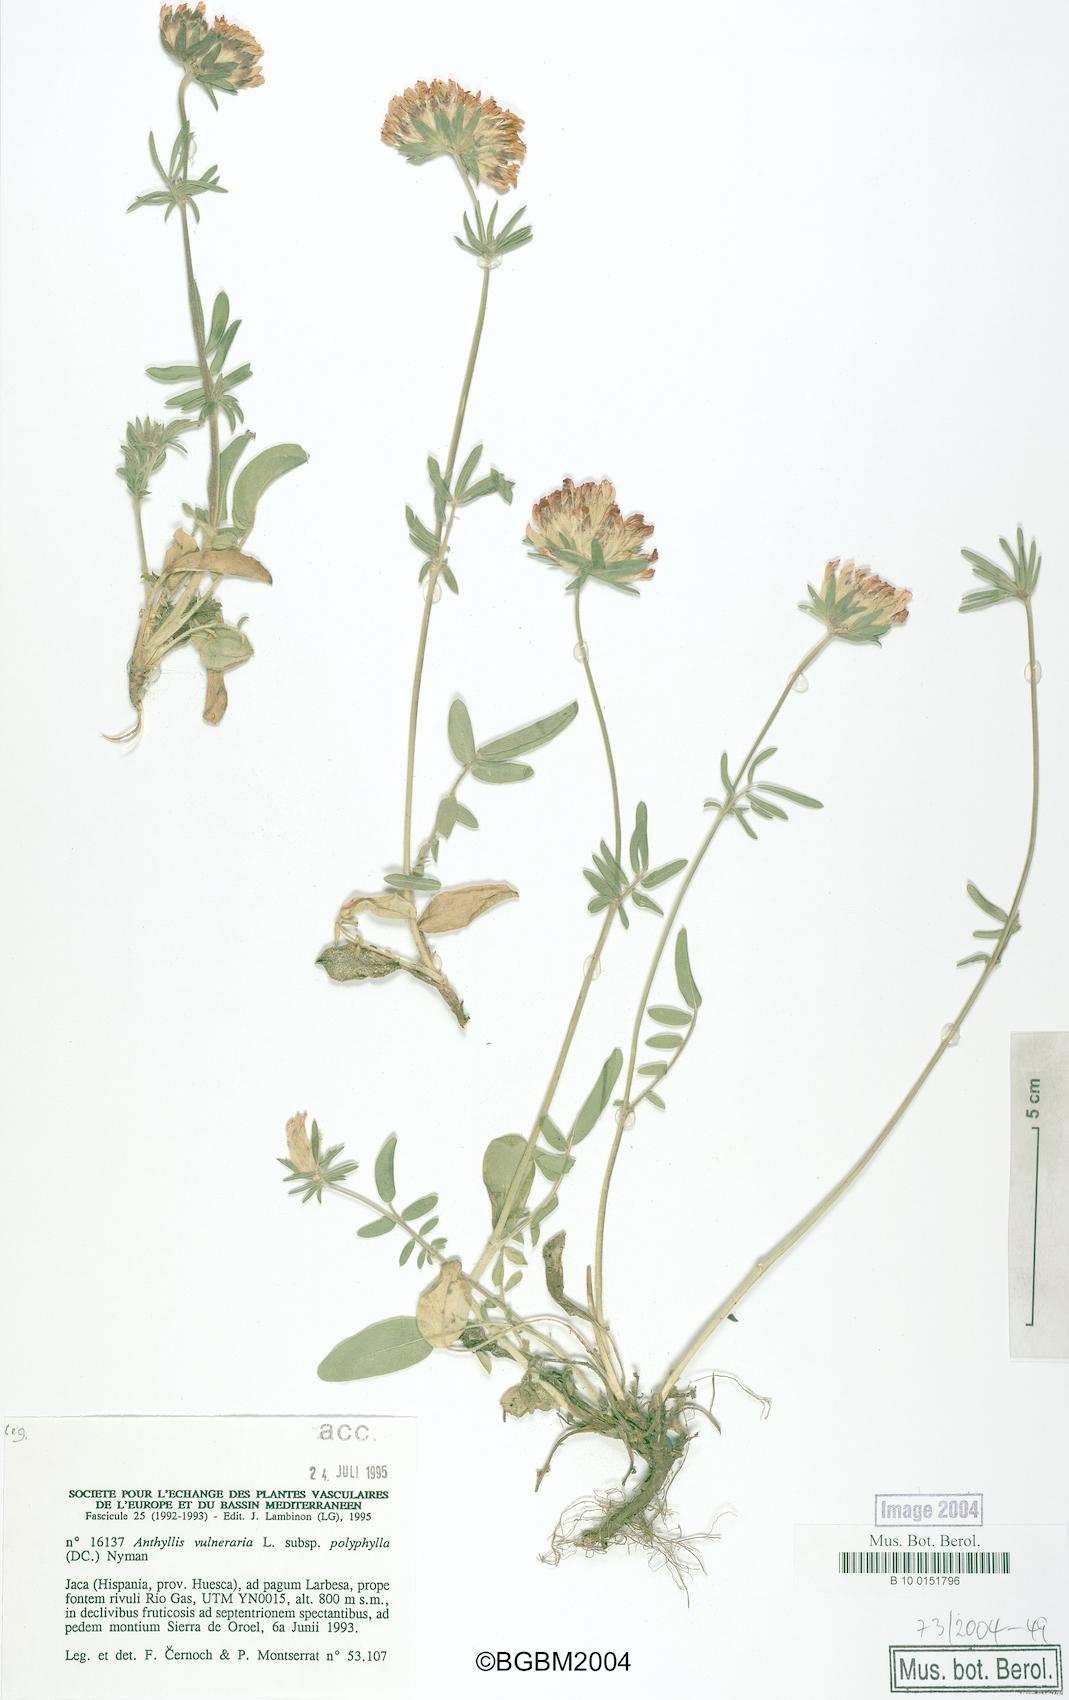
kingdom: Plantae
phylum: Tracheophyta
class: Magnoliopsida
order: Fabales
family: Fabaceae
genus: Anthyllis
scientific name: Anthyllis vulneraria
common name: Kidney vetch
